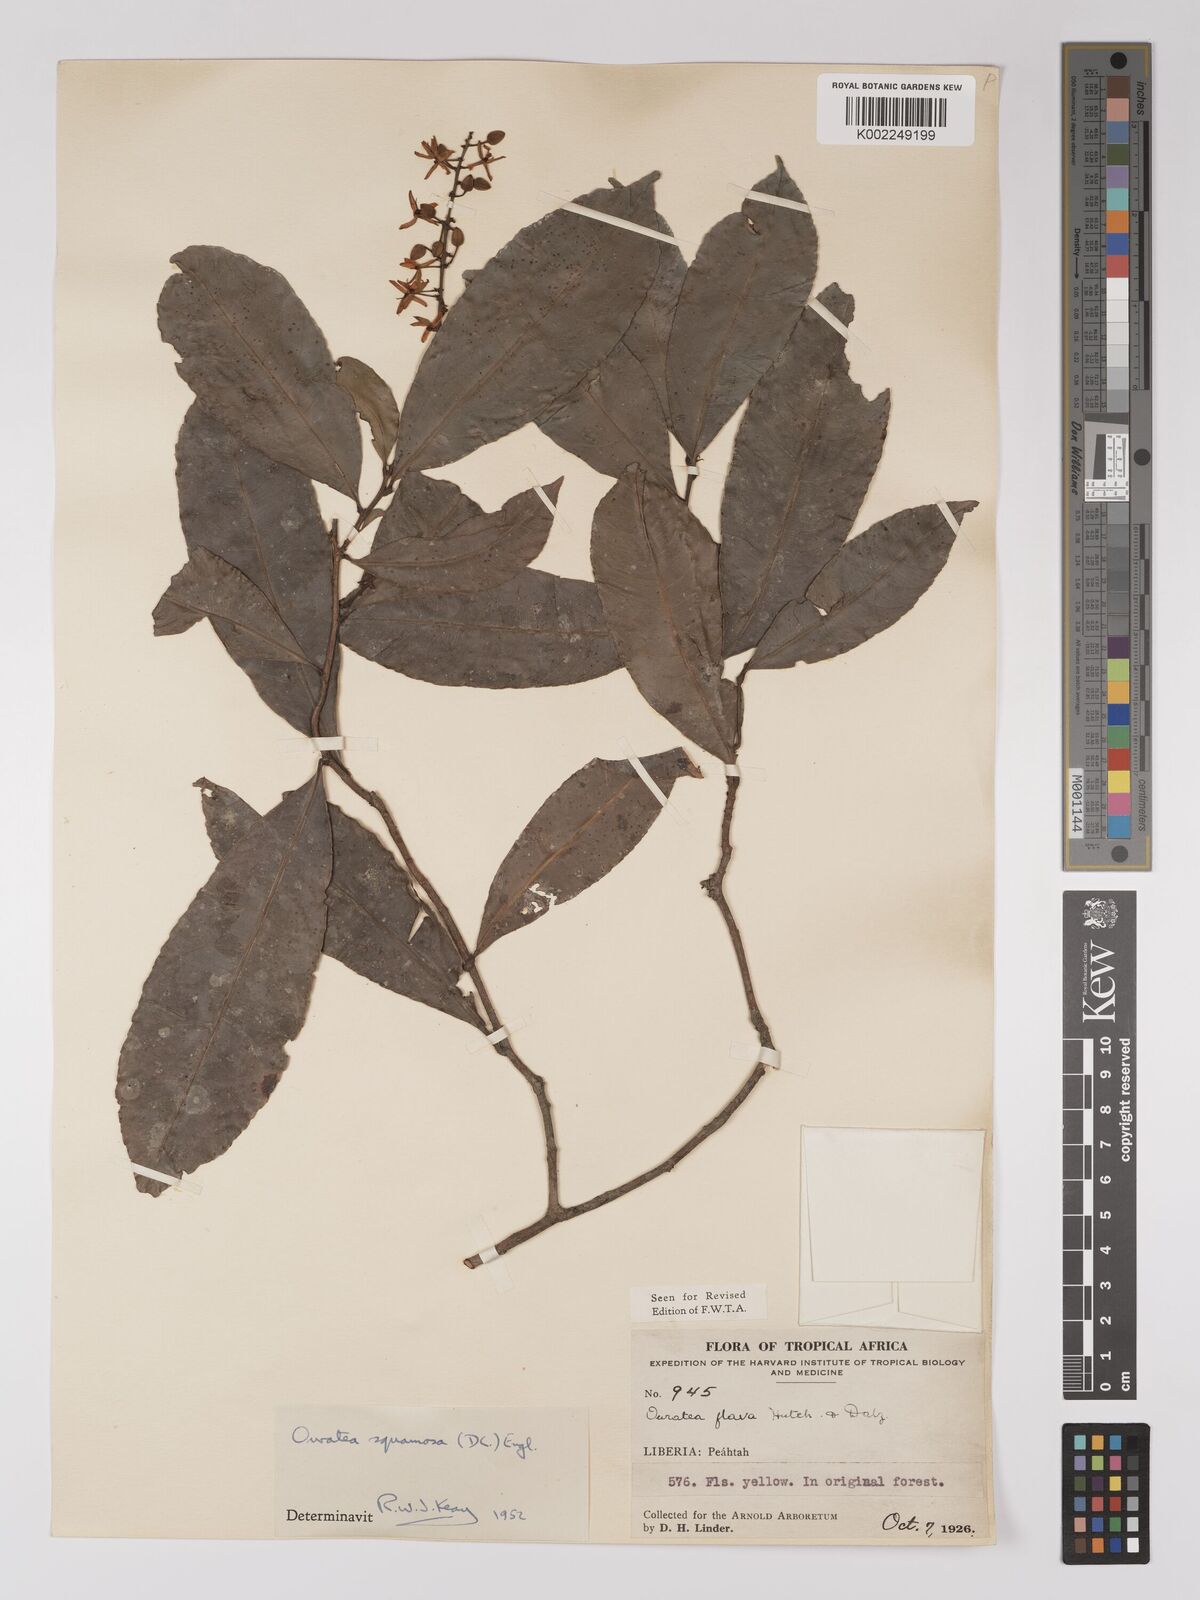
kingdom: Plantae
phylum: Tracheophyta
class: Magnoliopsida
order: Malpighiales
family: Ochnaceae
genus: Campylospermum
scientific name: Campylospermum squamosum
